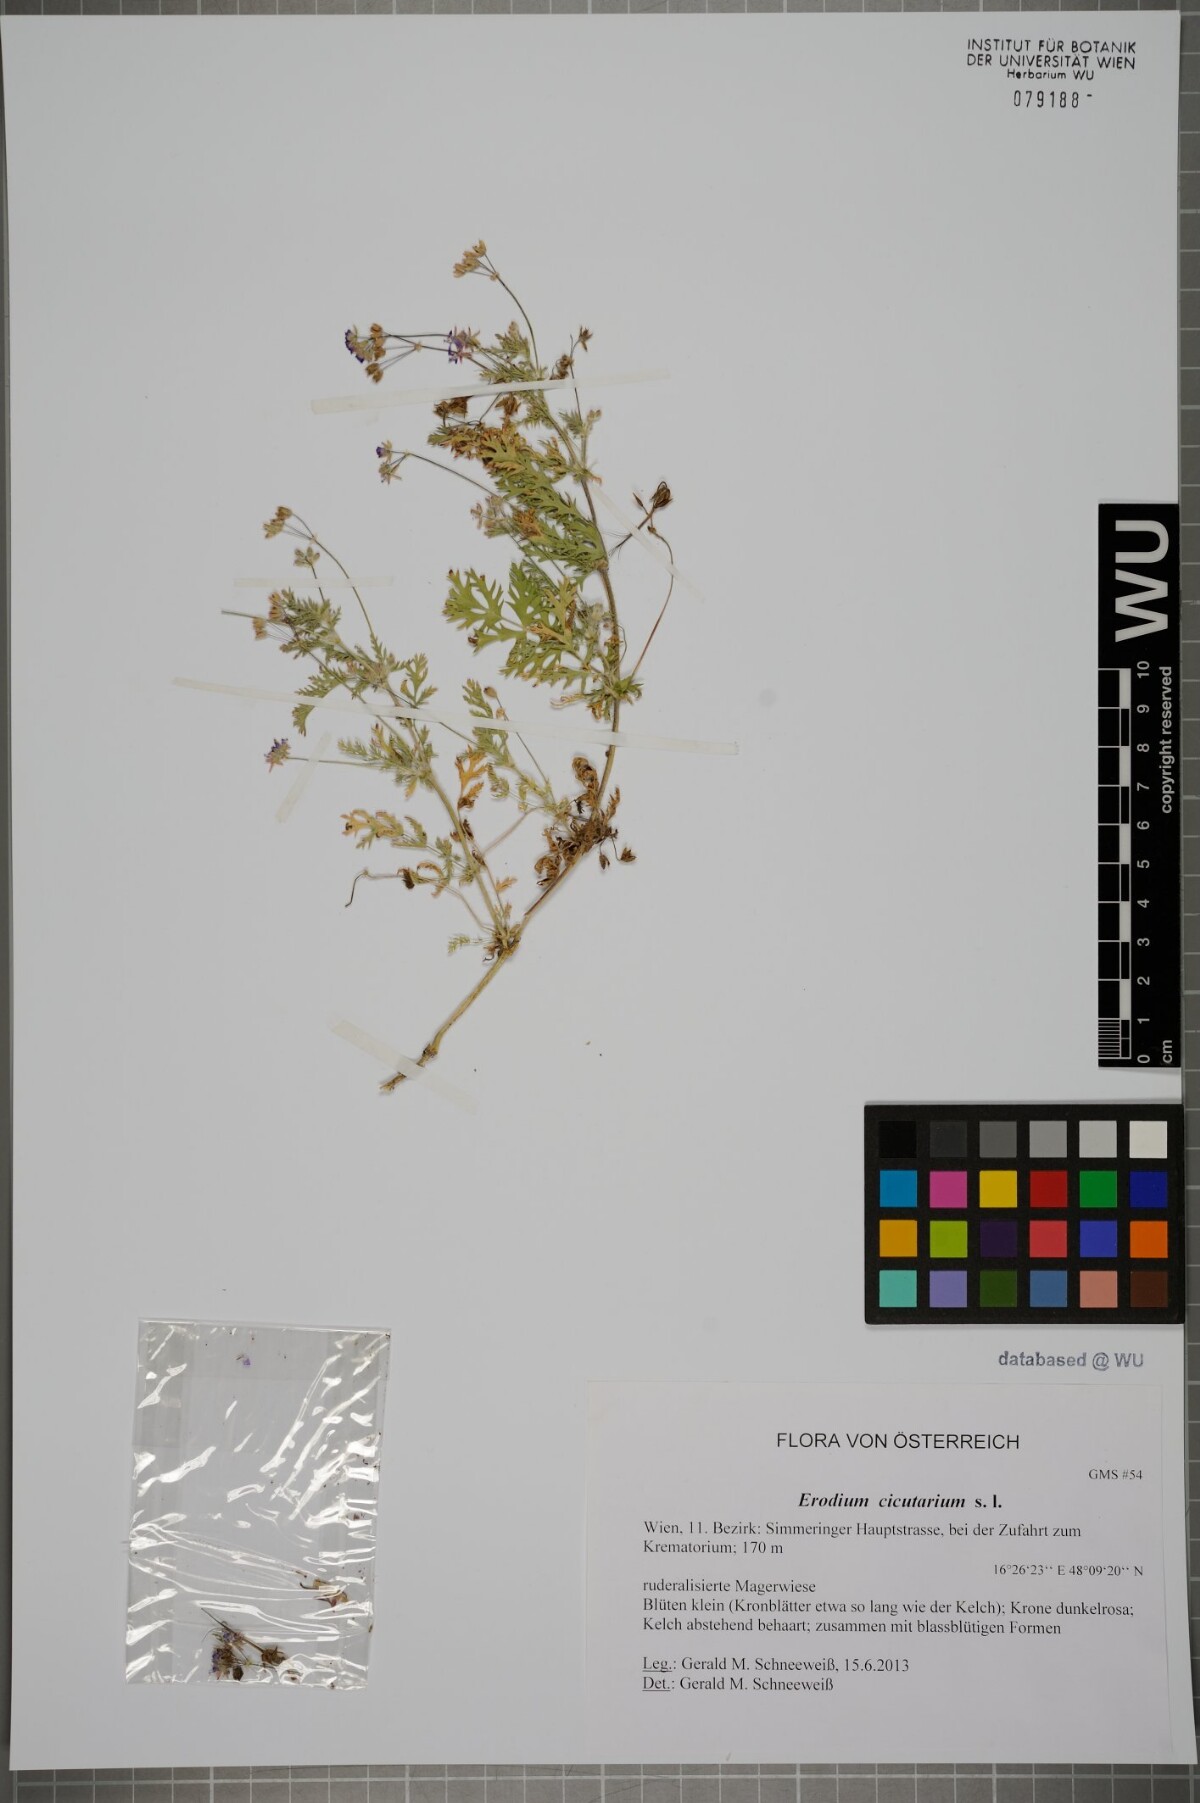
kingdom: Plantae
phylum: Tracheophyta
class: Magnoliopsida
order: Geraniales
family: Geraniaceae
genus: Erodium
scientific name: Erodium cicutarium
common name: Common stork's-bill
